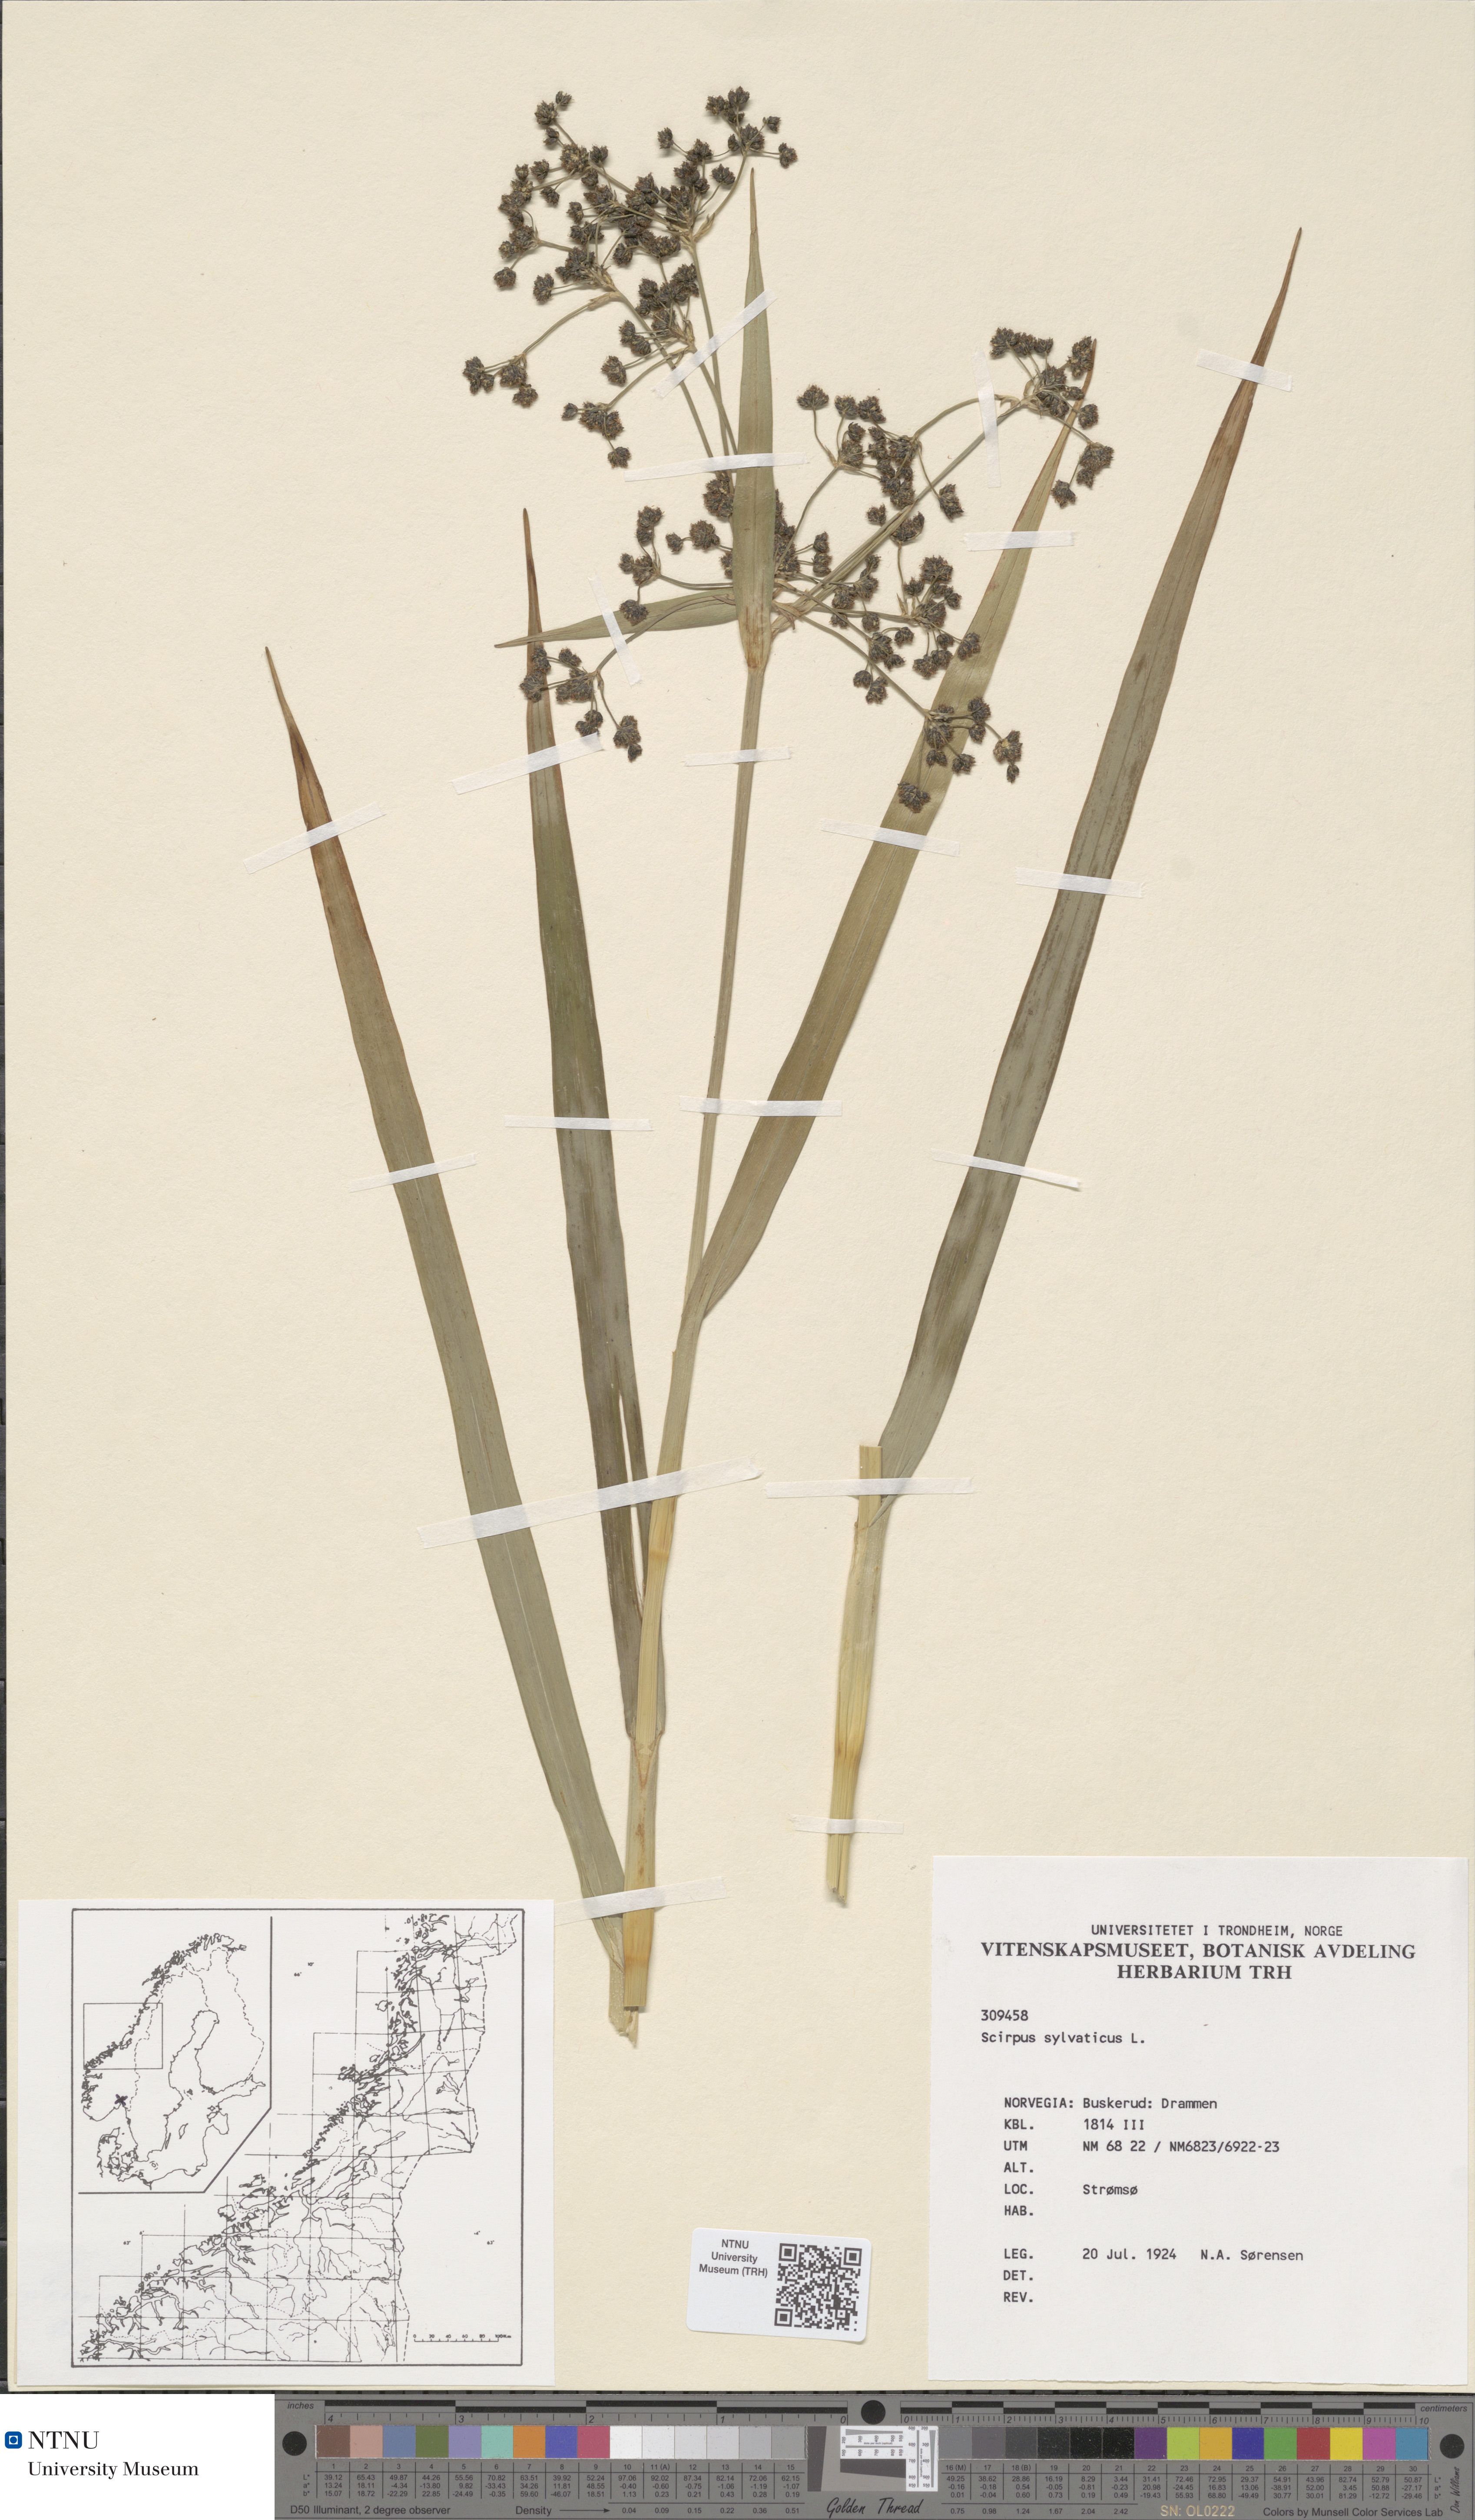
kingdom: Plantae
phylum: Tracheophyta
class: Liliopsida
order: Poales
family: Cyperaceae
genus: Scirpus
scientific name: Scirpus sylvaticus
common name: Wood club-rush
